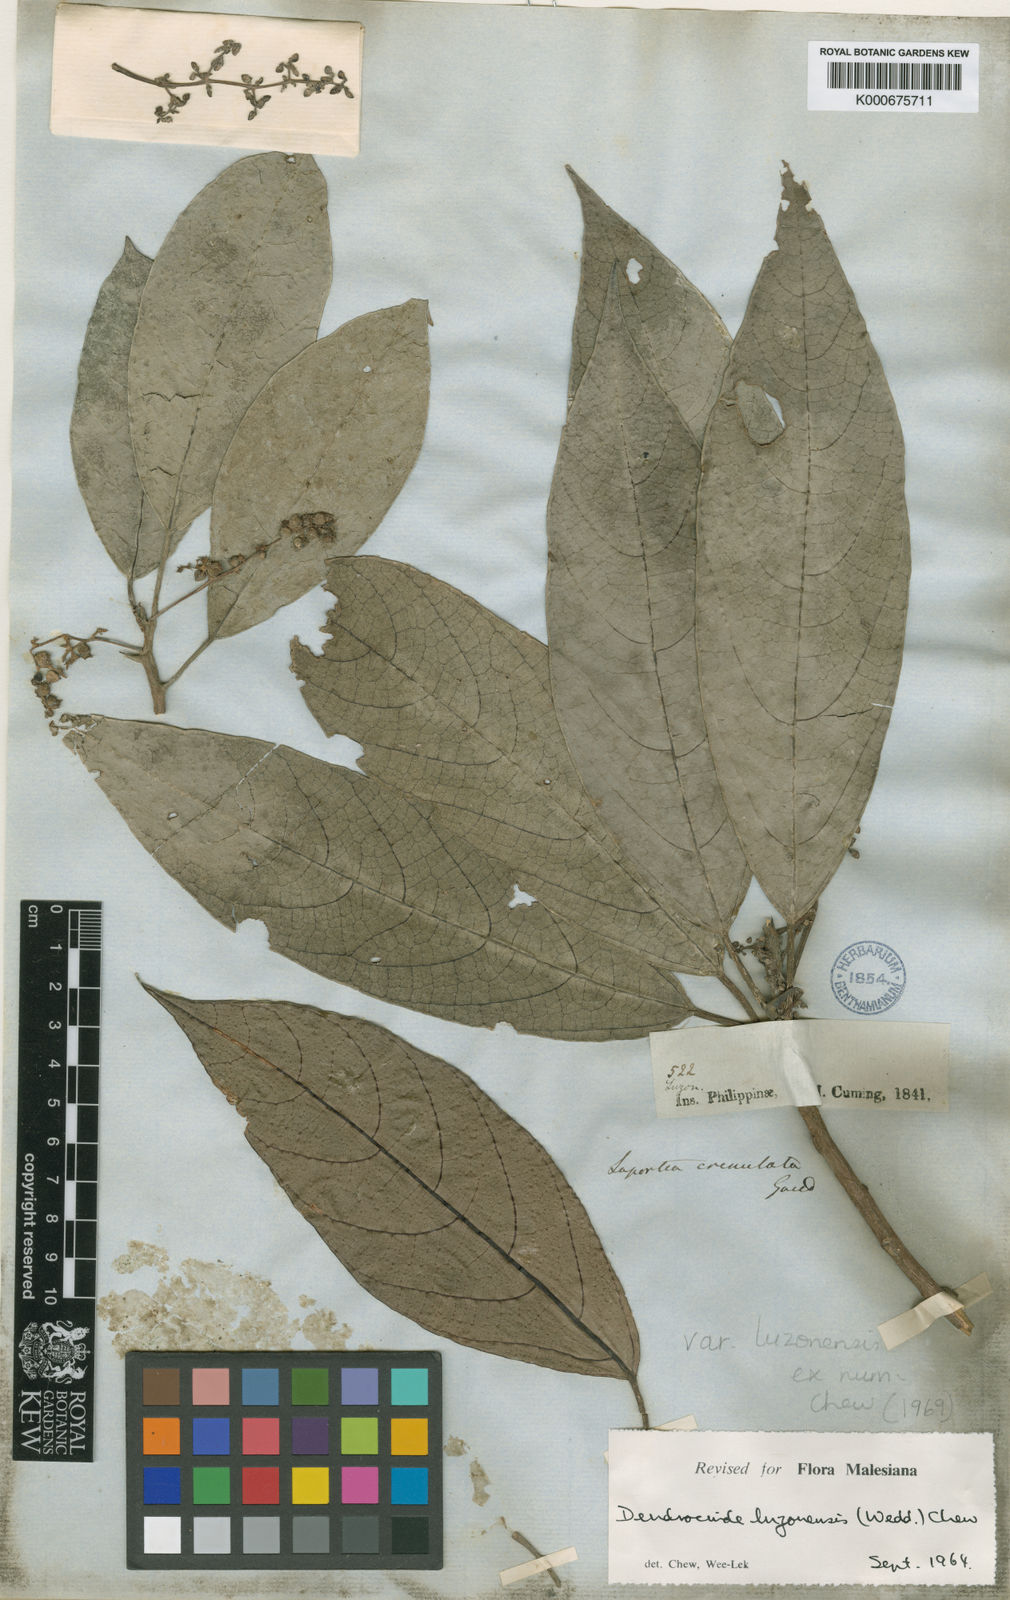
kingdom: Plantae
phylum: Tracheophyta
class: Magnoliopsida
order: Rosales
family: Urticaceae
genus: Dendrocnide
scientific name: Dendrocnide luzonensis
